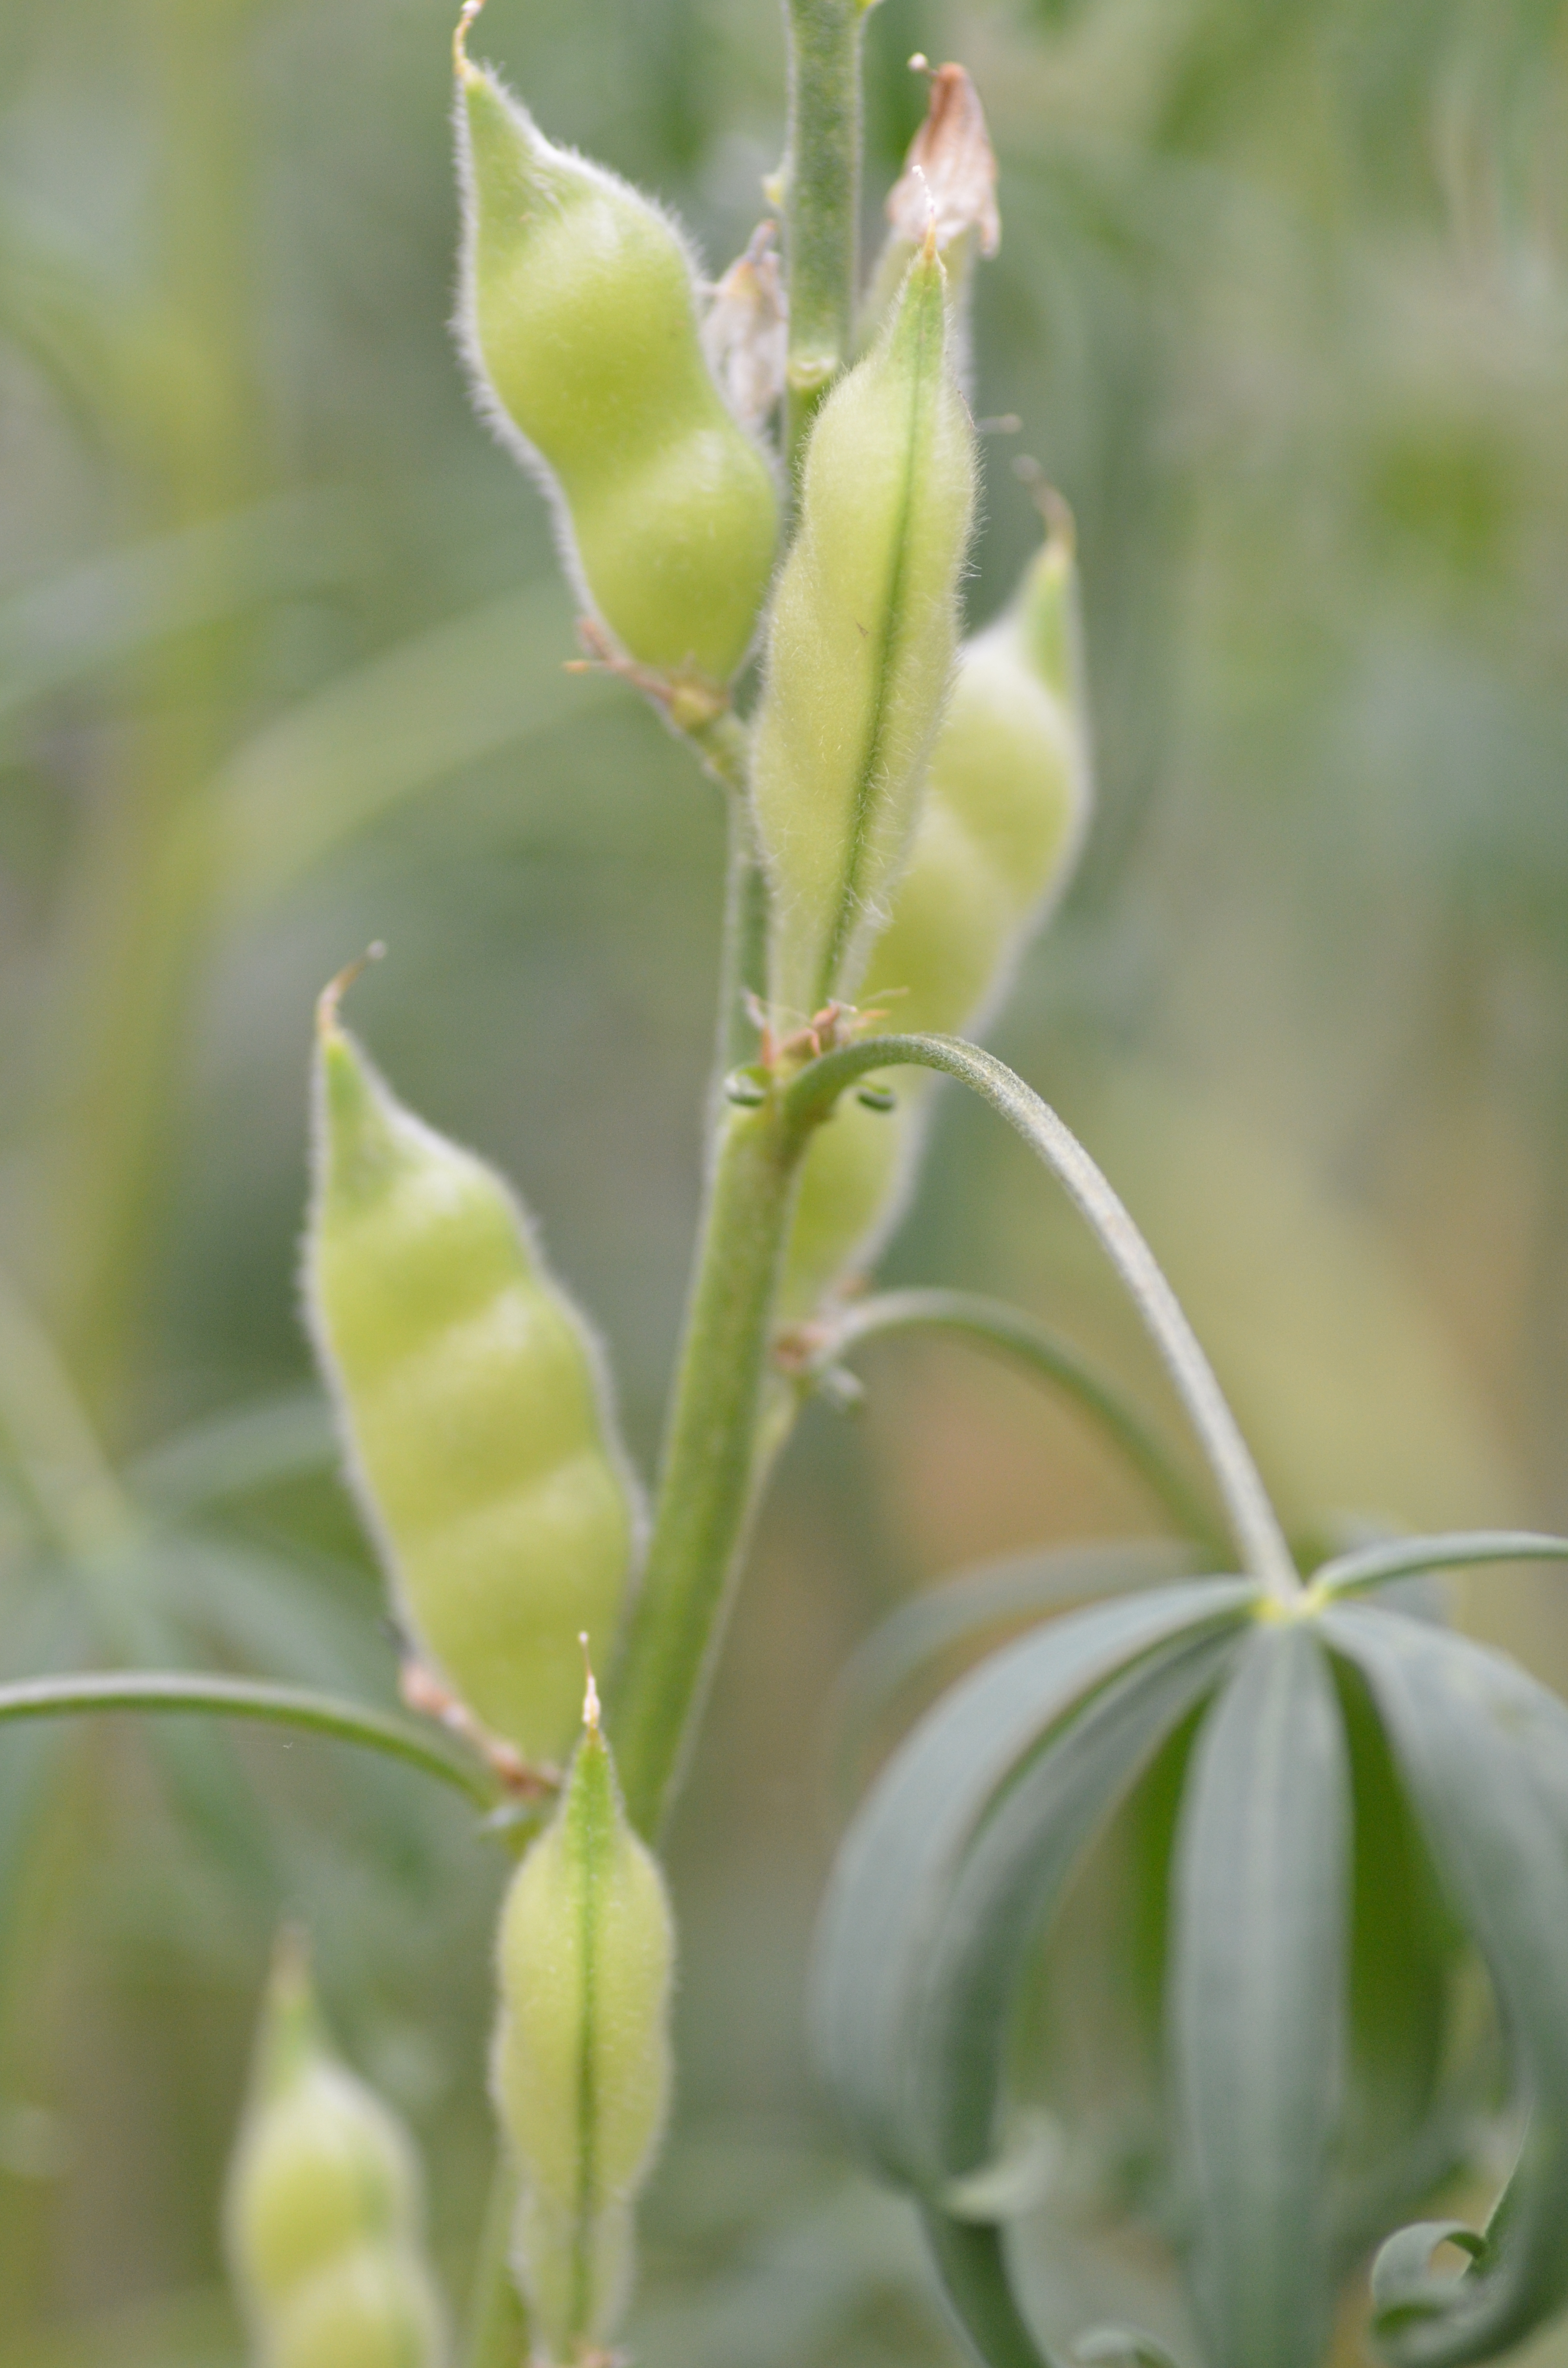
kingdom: Plantae
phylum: Tracheophyta
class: Magnoliopsida
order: Fabales
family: Fabaceae
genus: Lupinus
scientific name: Lupinus angustifolius
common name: Narrow-leaved lupin
